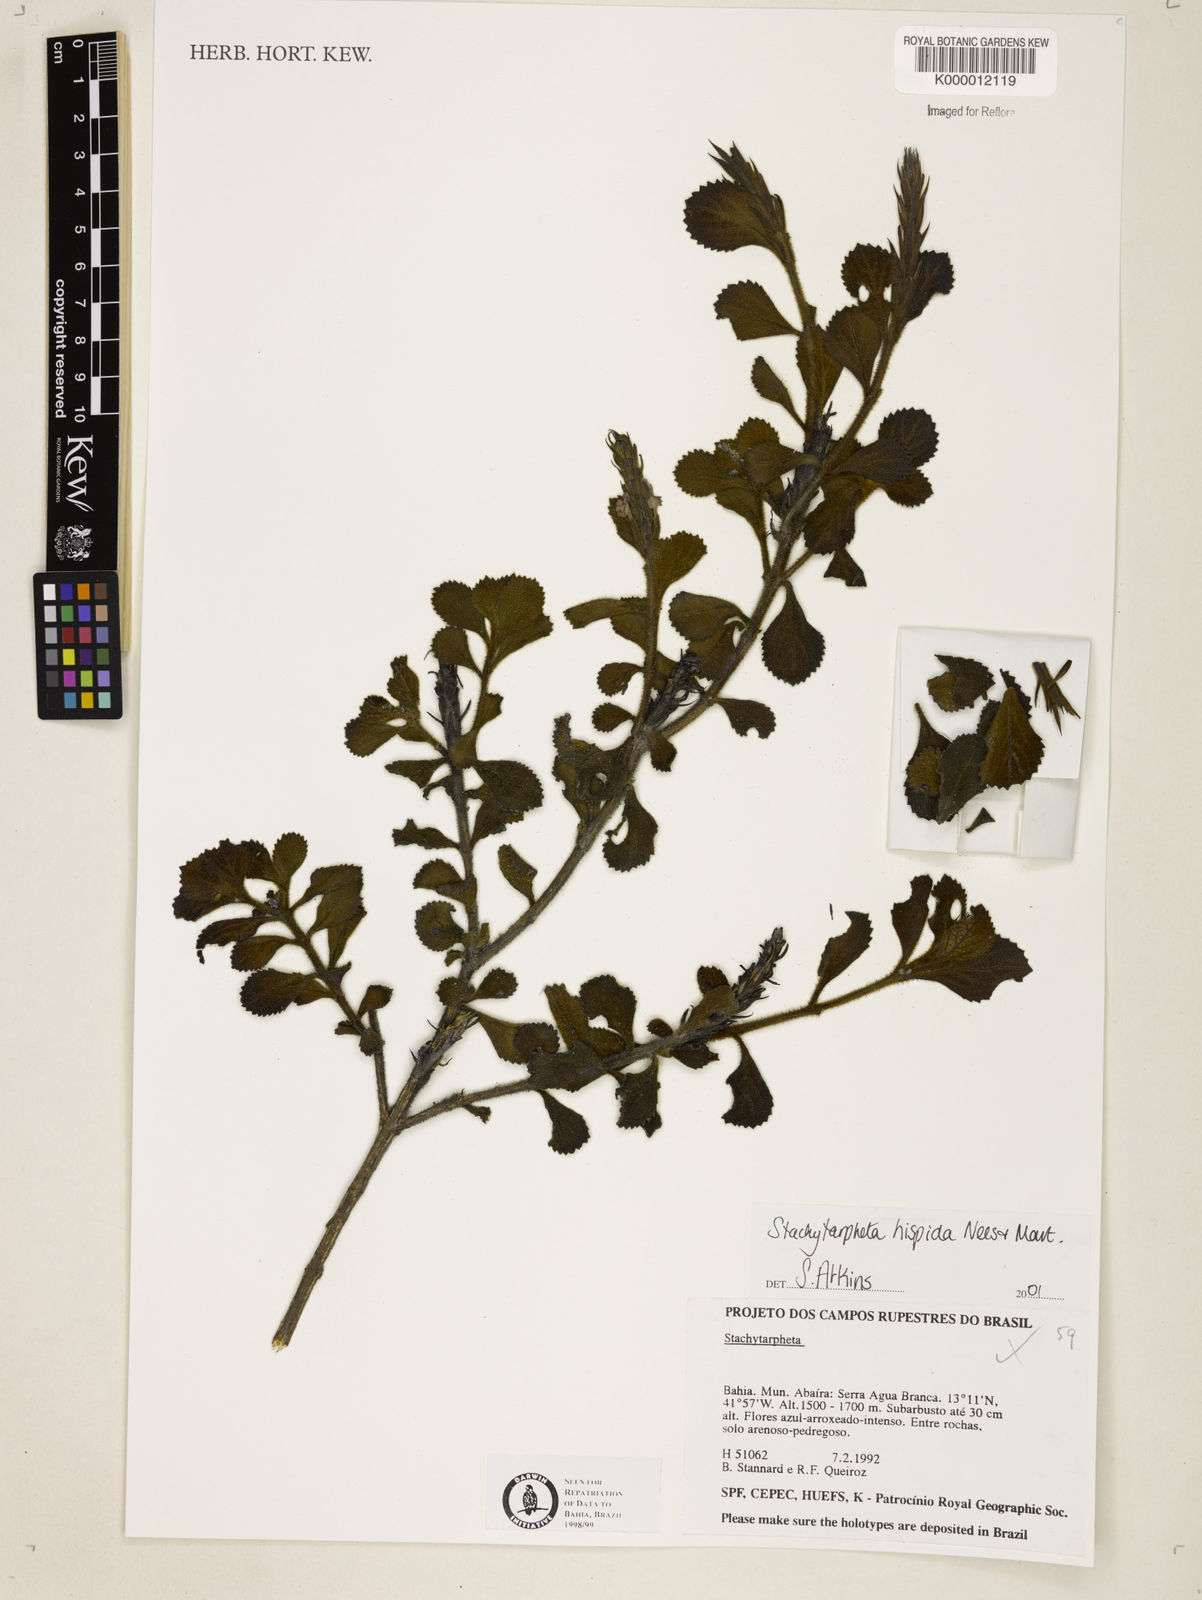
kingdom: Plantae
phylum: Tracheophyta
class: Magnoliopsida
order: Lamiales
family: Verbenaceae
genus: Stachytarpheta
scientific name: Stachytarpheta hispida
